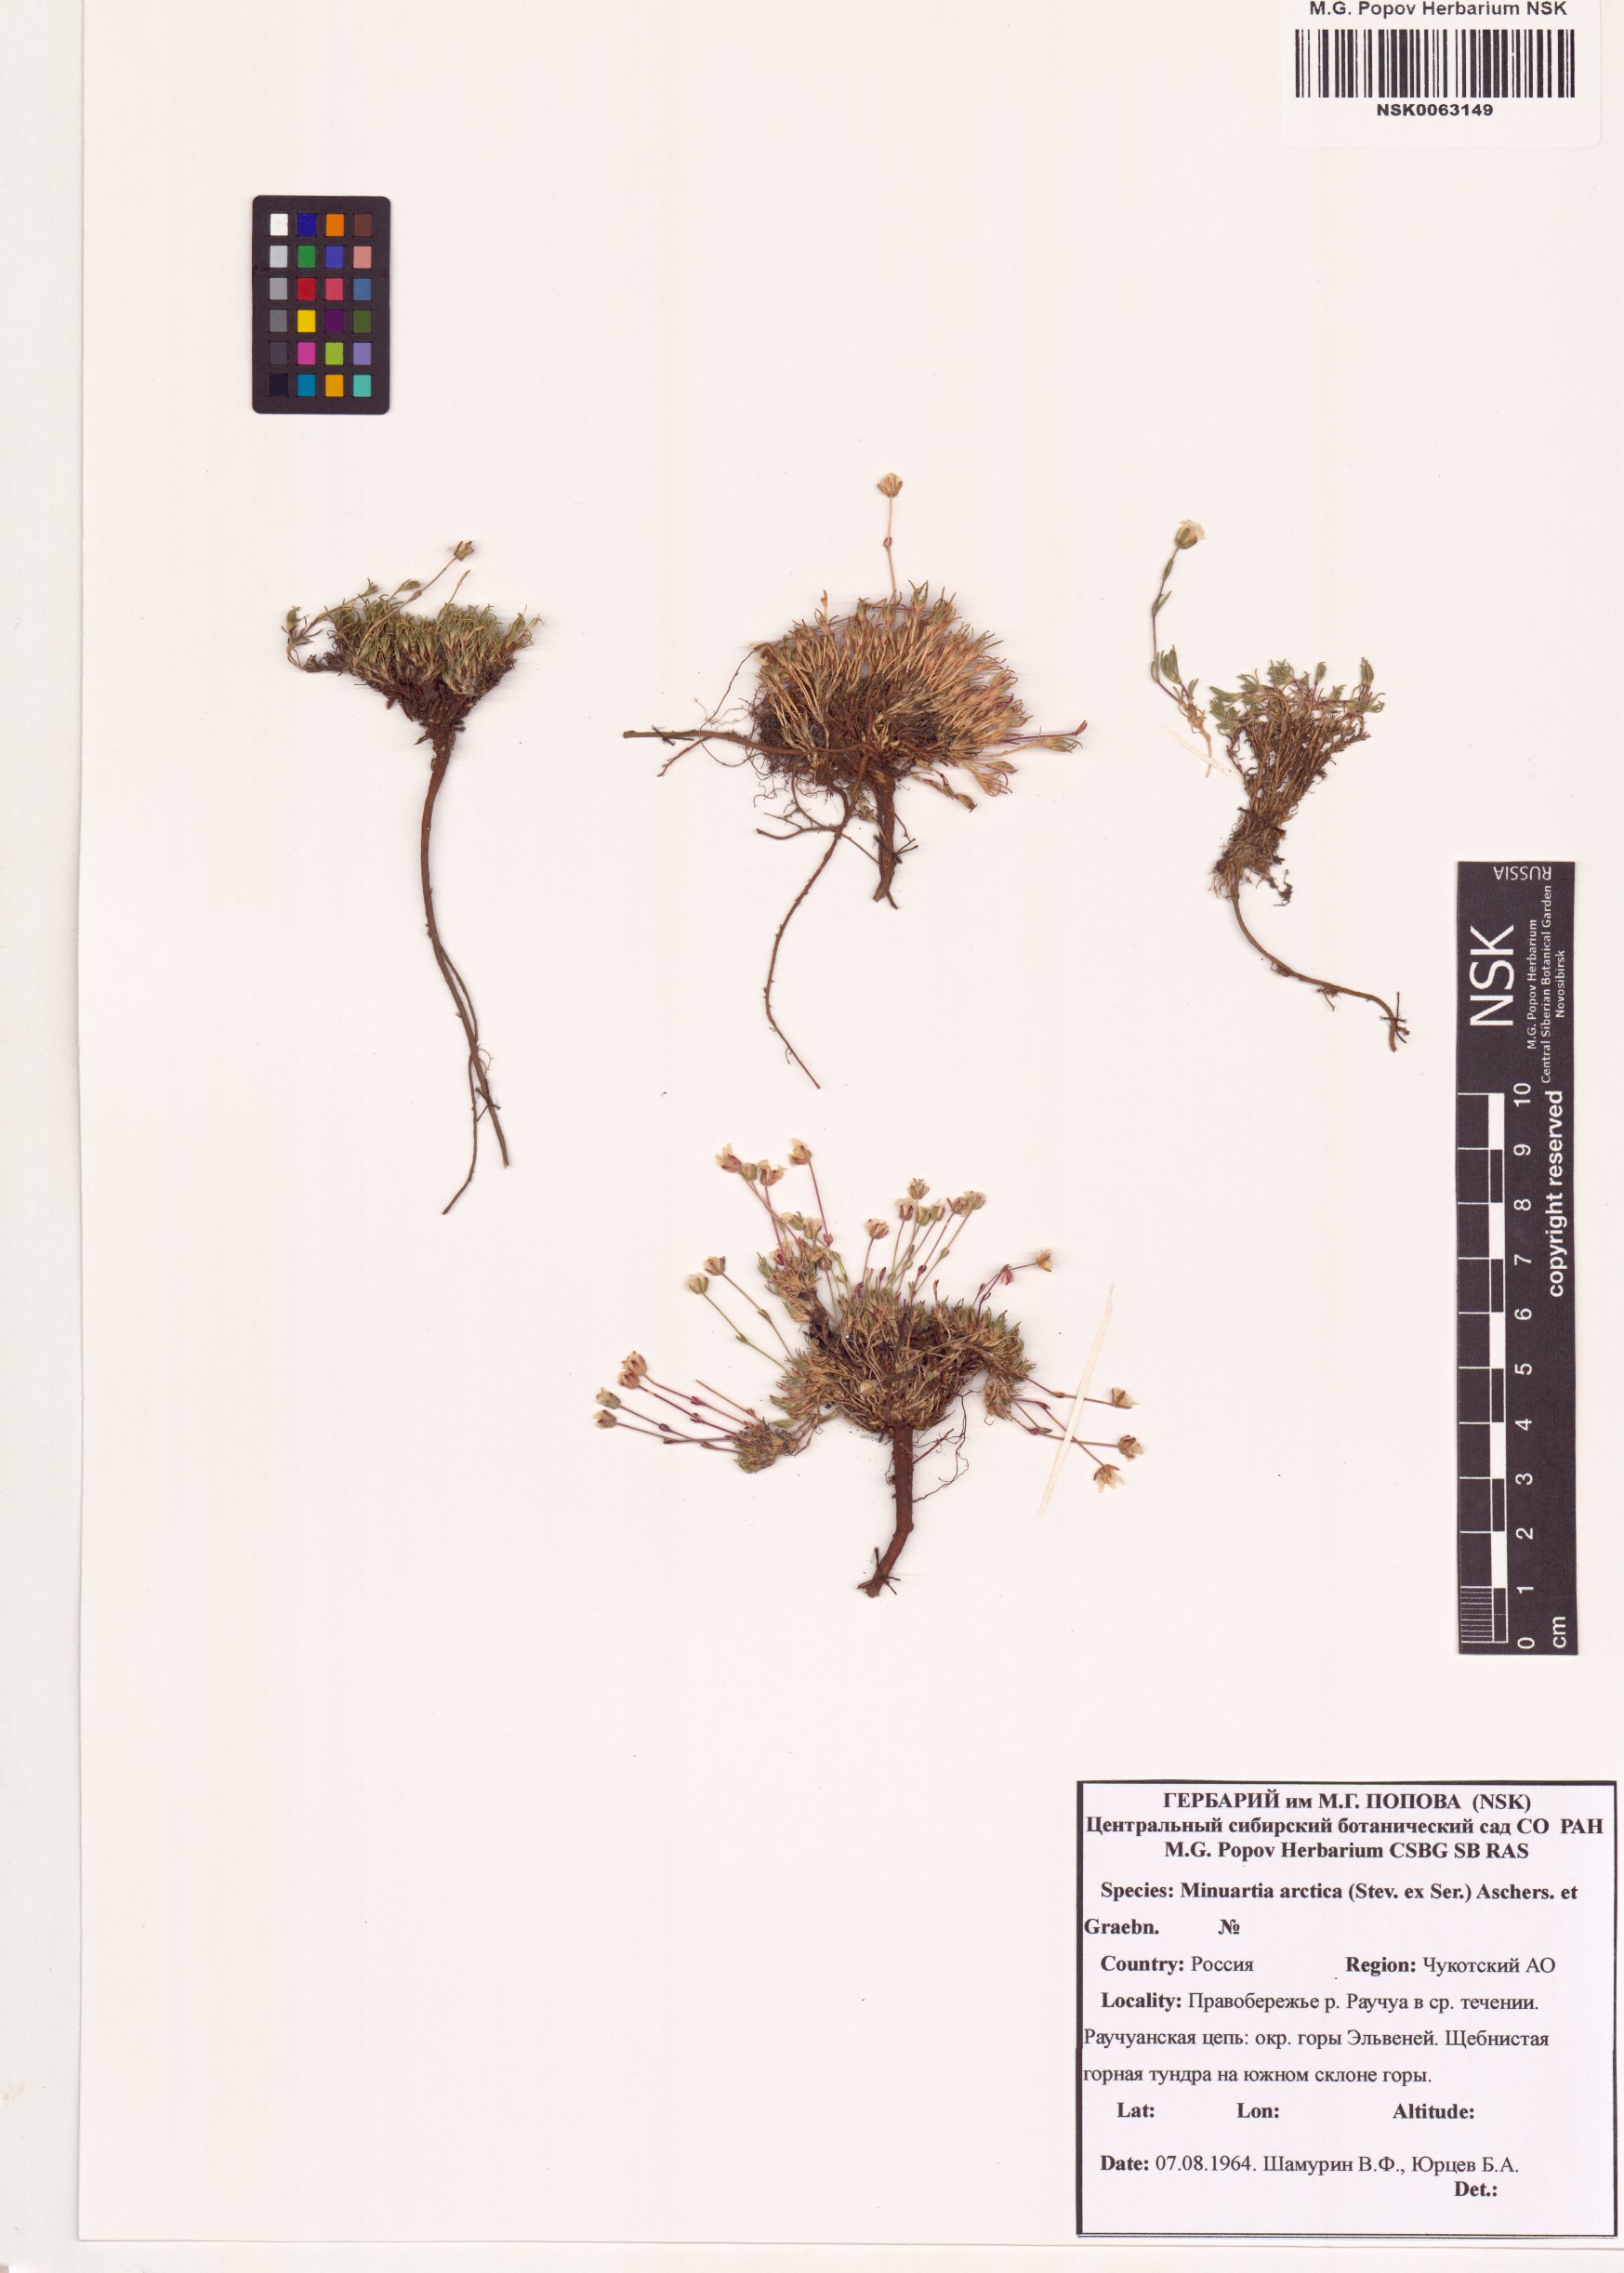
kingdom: Plantae
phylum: Tracheophyta
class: Magnoliopsida
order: Caryophyllales
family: Caryophyllaceae
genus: Cherleria
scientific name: Cherleria arctica
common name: Arctic sandwort
